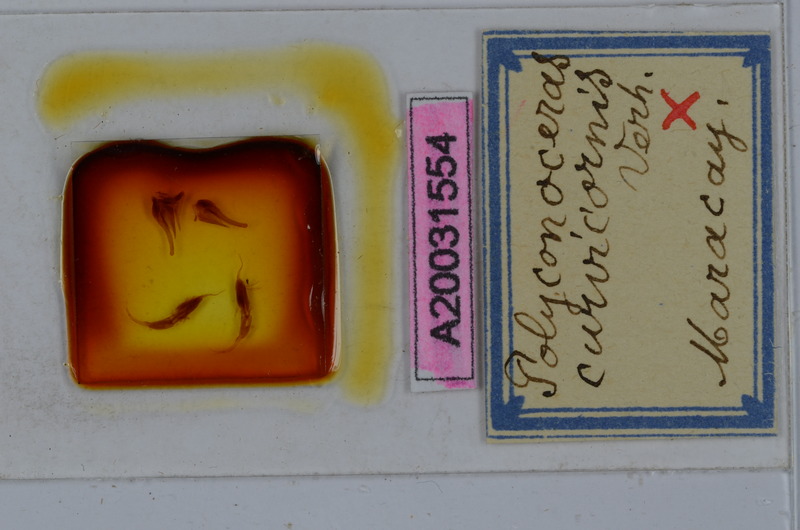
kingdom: Animalia
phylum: Arthropoda
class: Diplopoda
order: Spirobolida
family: Rhinocricidae
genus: Salpidobolus
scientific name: Salpidobolus curvicornis
